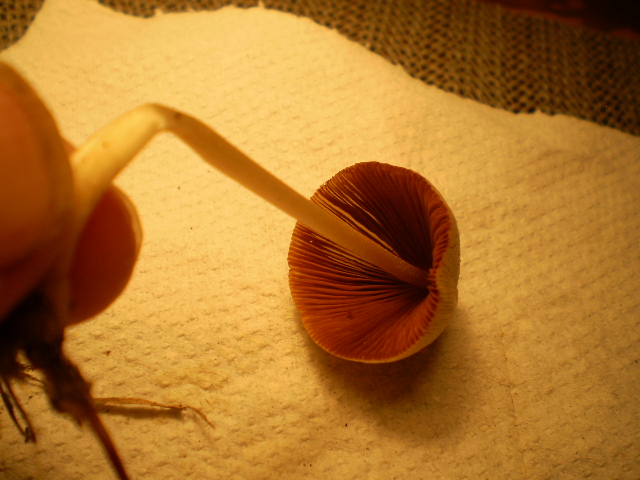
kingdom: Fungi
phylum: Basidiomycota
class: Agaricomycetes
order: Agaricales
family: Bolbitiaceae
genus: Conocybe
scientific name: Conocybe apala
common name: mælkehvid keglehat
